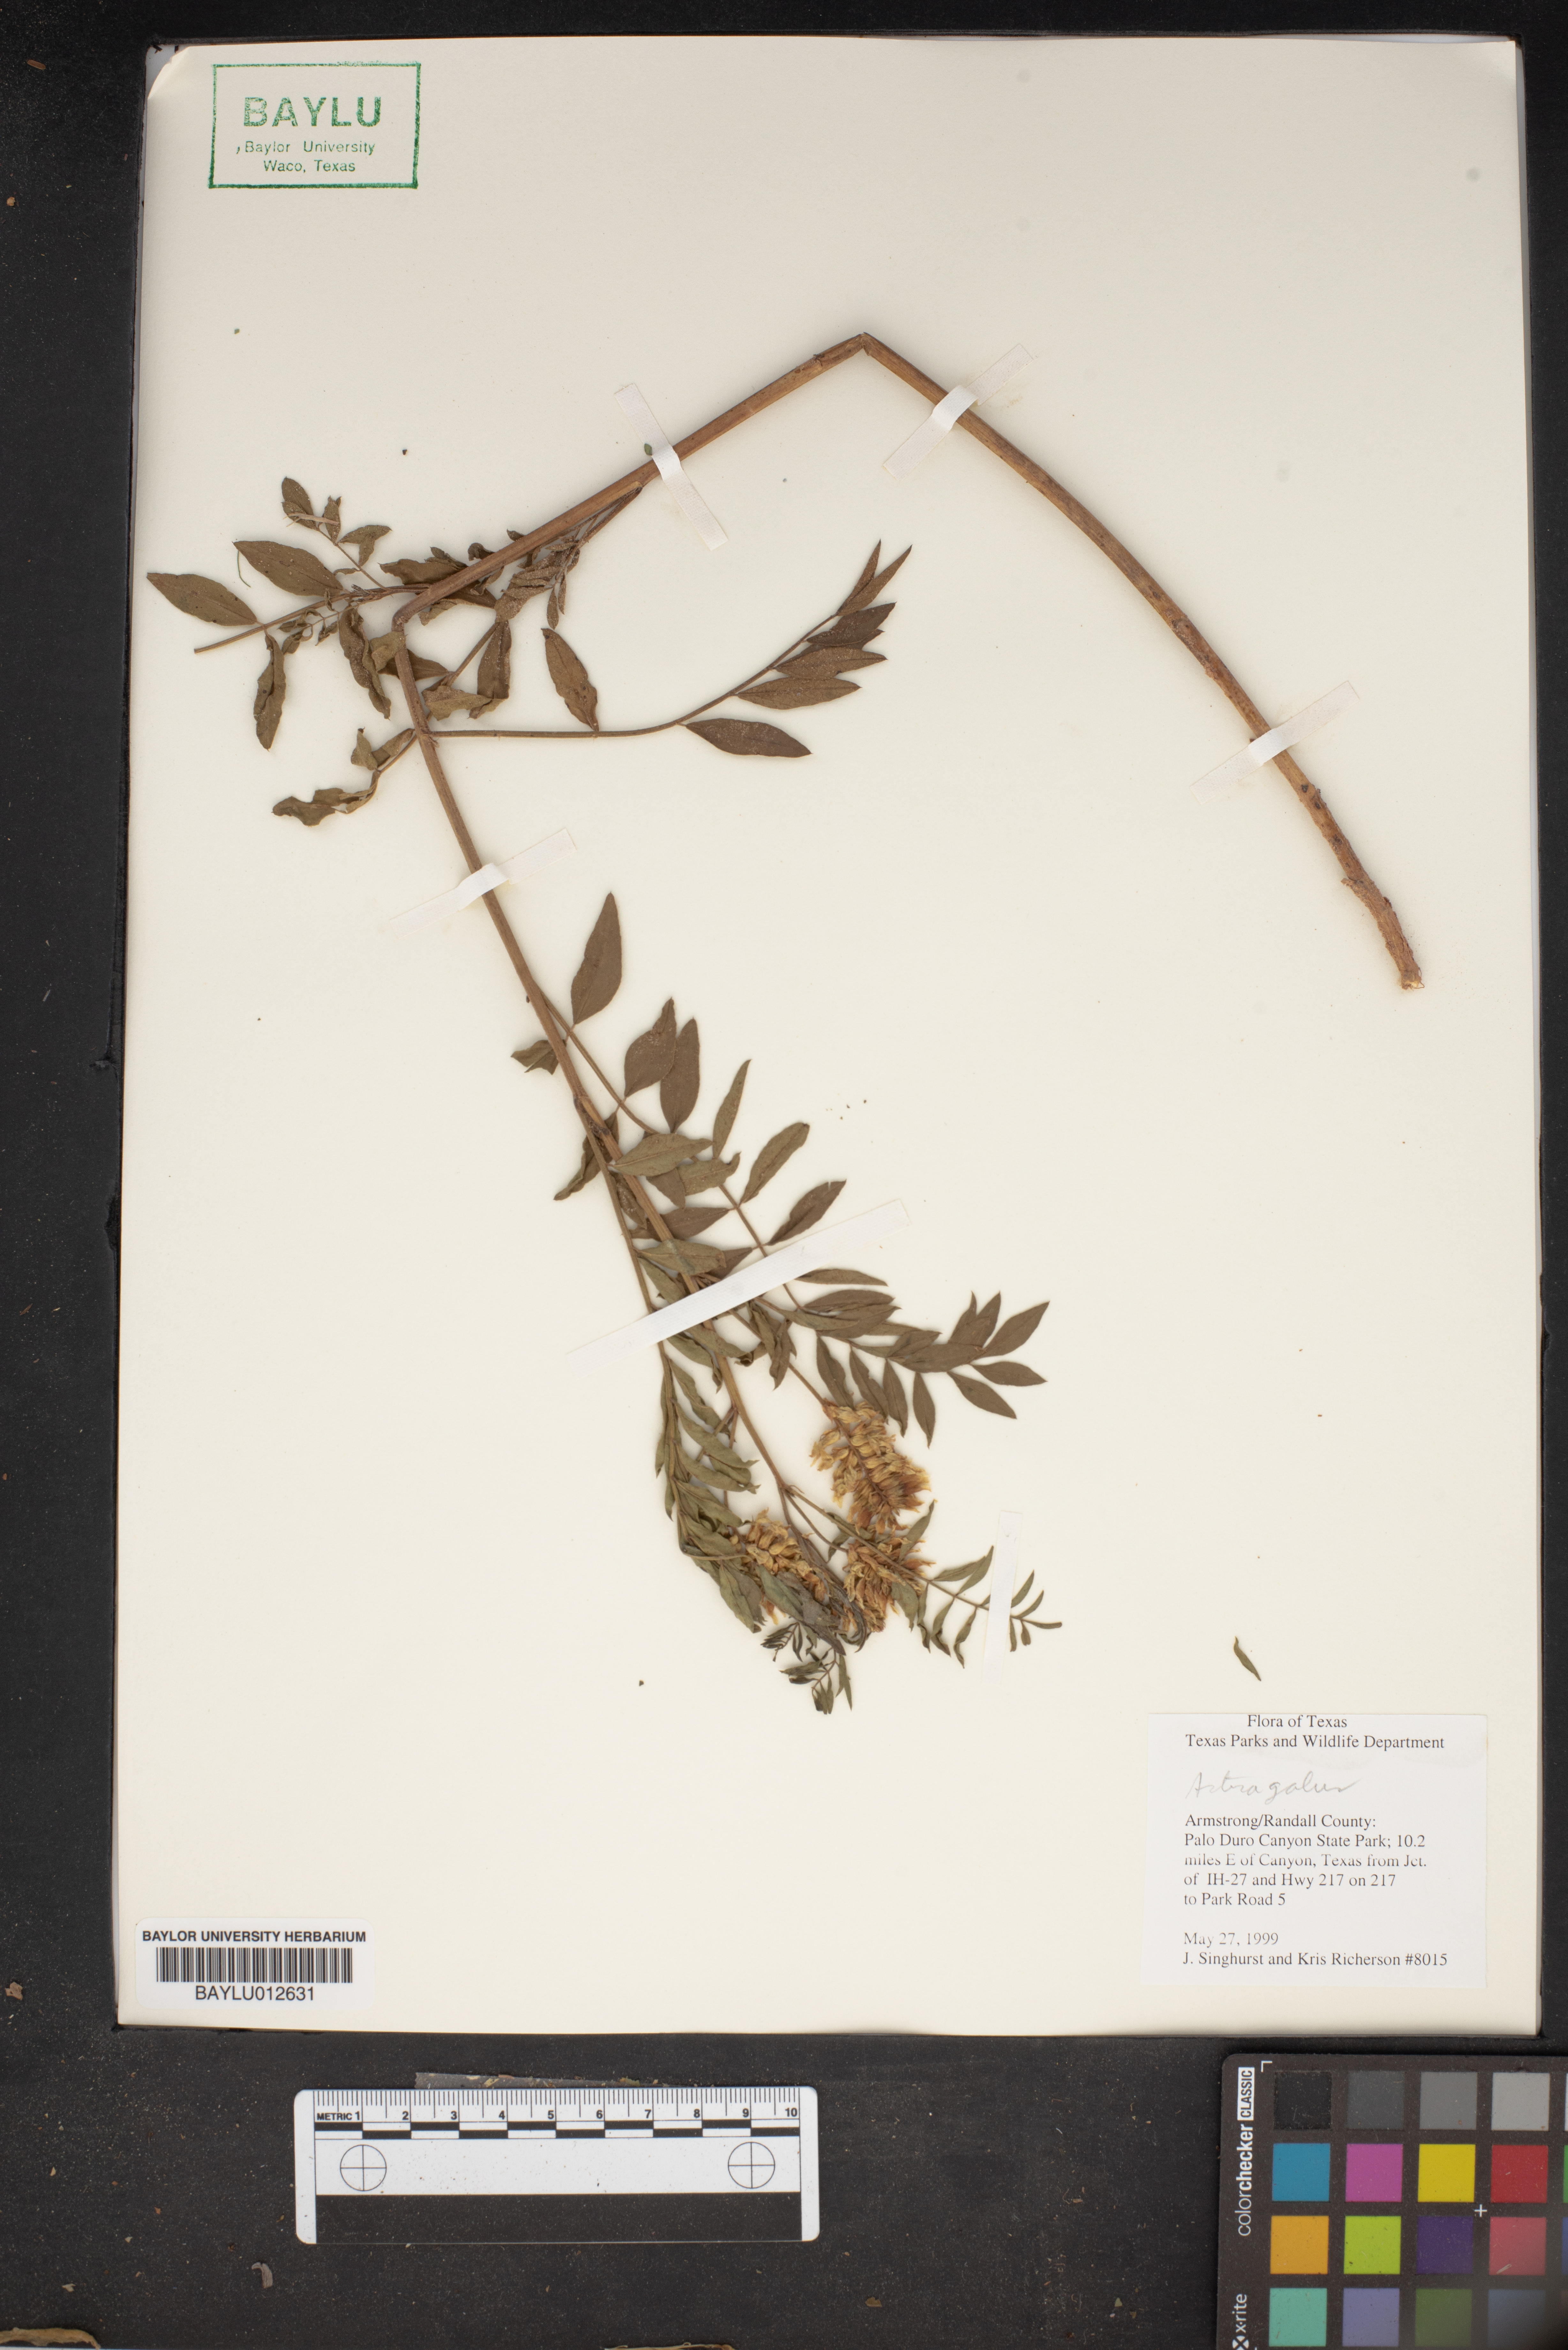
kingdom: Plantae
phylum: Tracheophyta
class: Magnoliopsida
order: Fabales
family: Fabaceae
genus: Astragalus
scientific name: Astragalus
